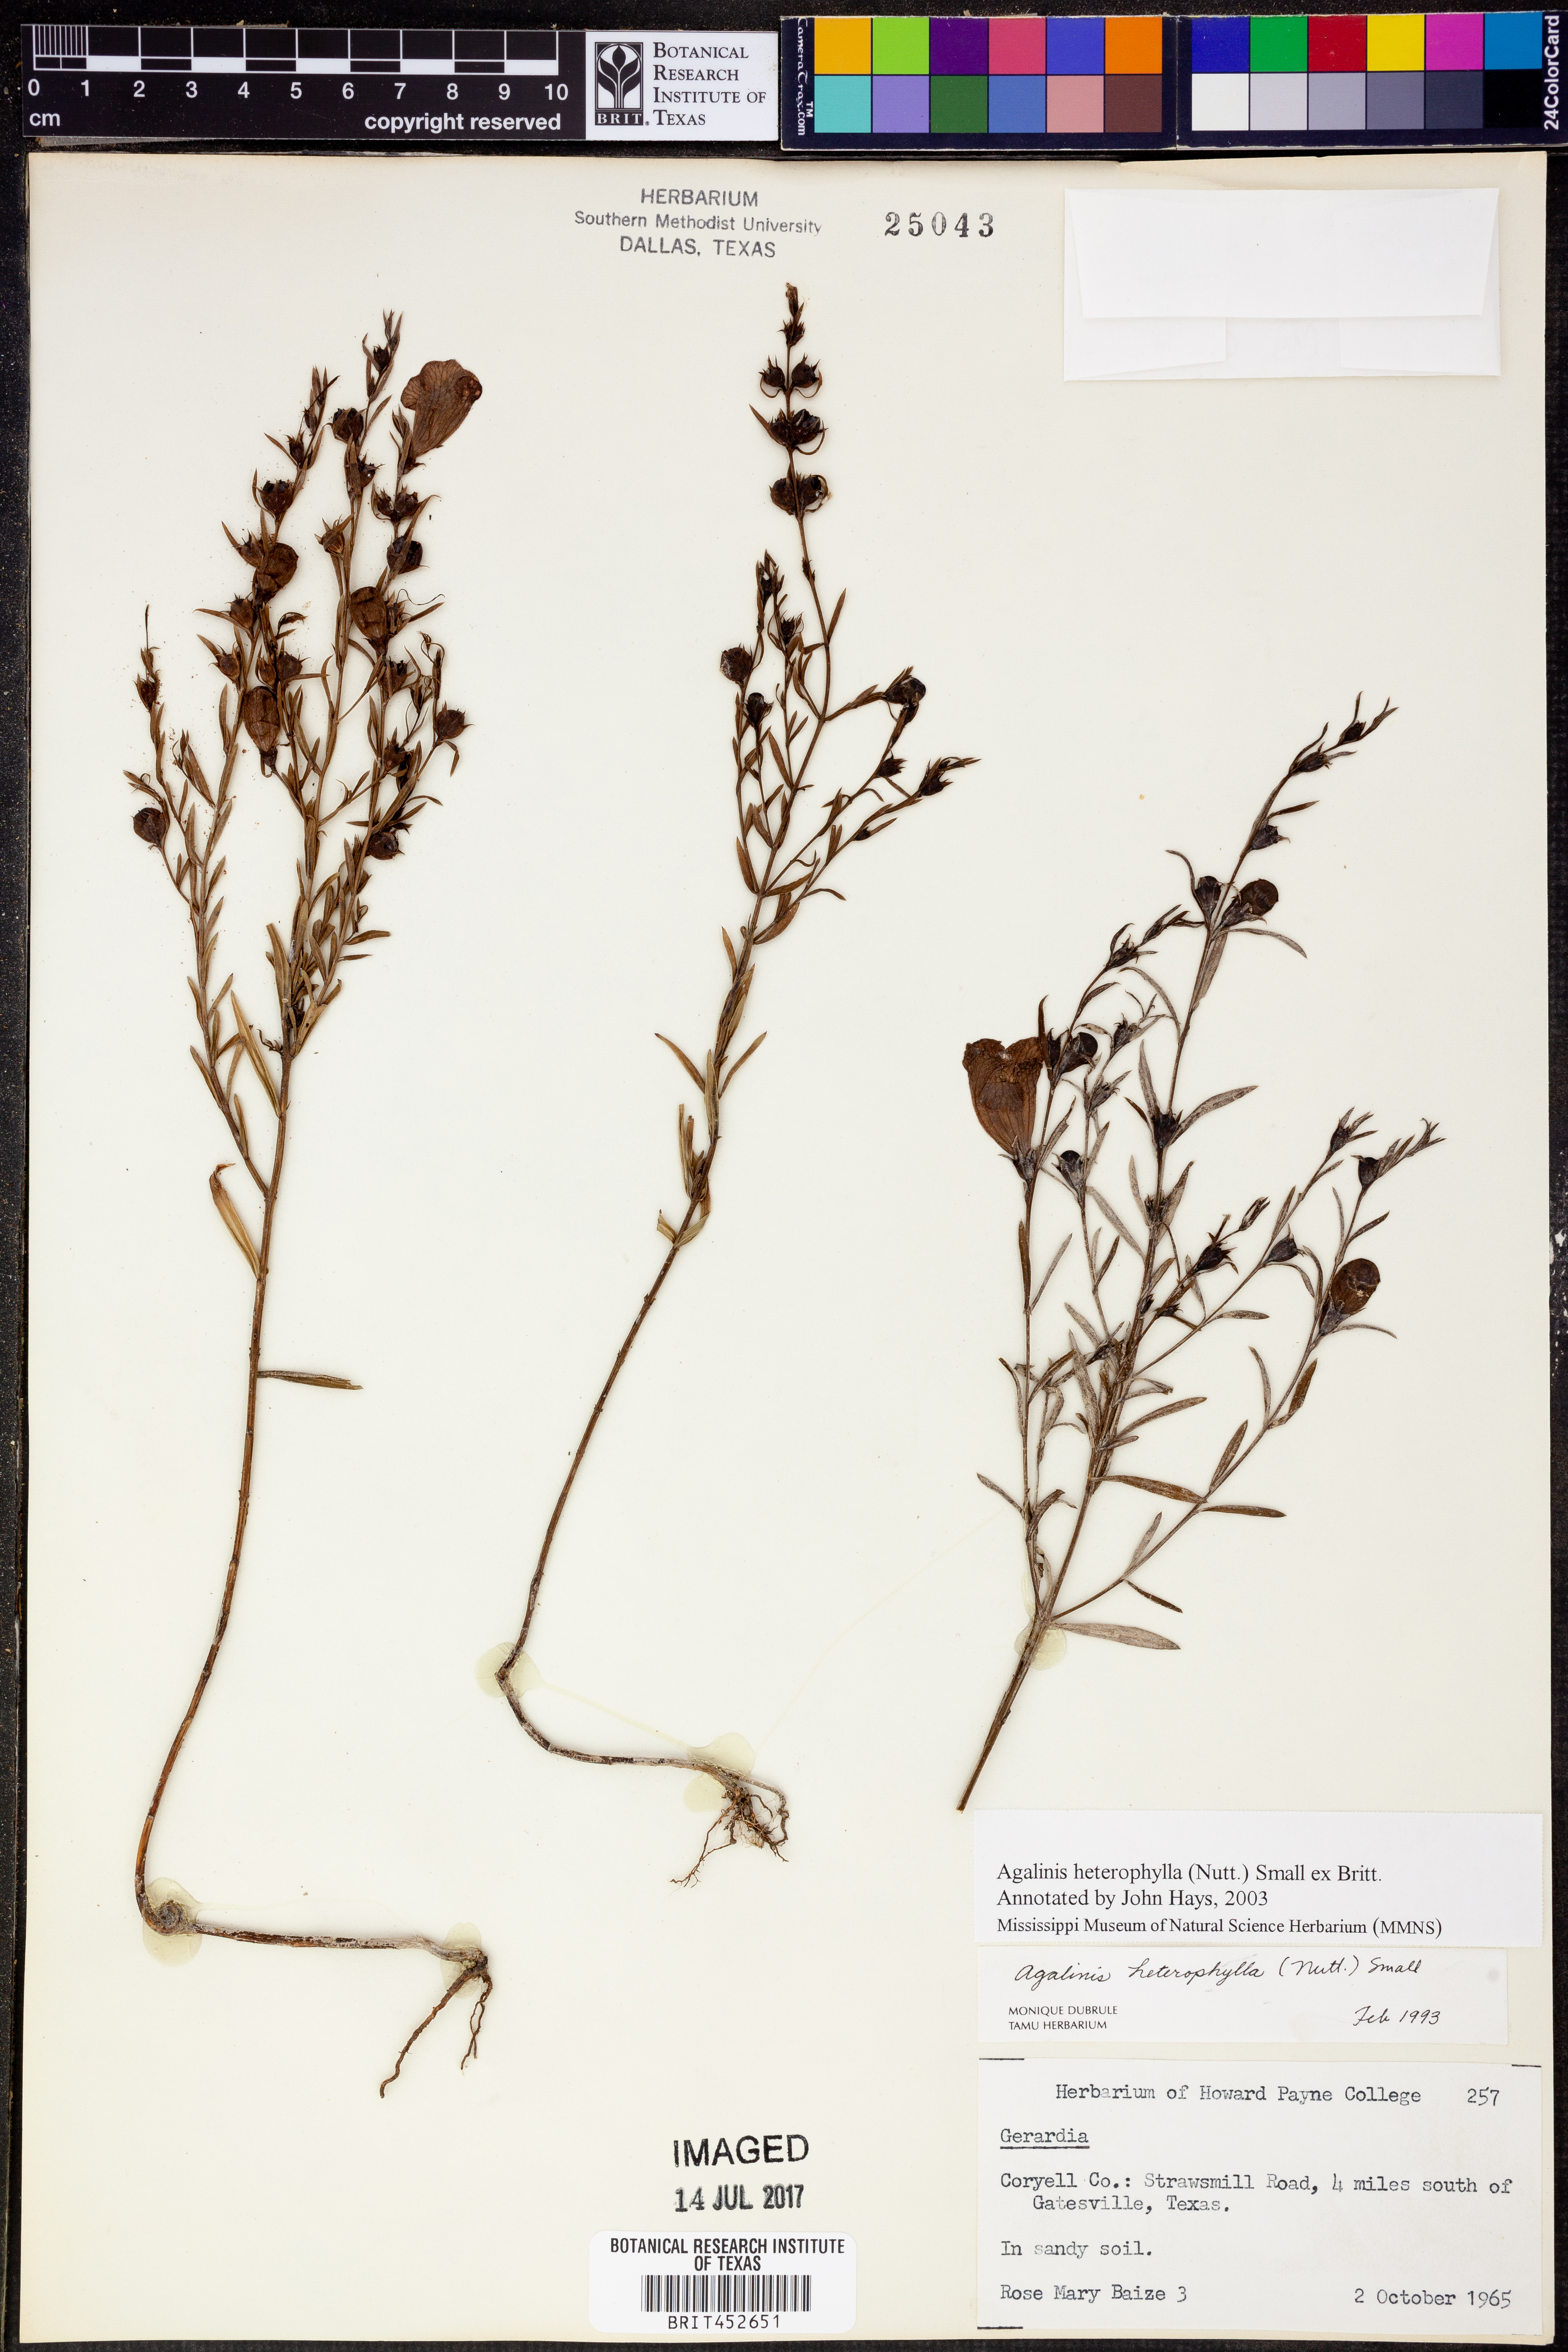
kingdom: Plantae
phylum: Tracheophyta
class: Magnoliopsida
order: Lamiales
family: Orobanchaceae
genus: Agalinis
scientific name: Agalinis heterophylla
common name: Prairie agalinis
